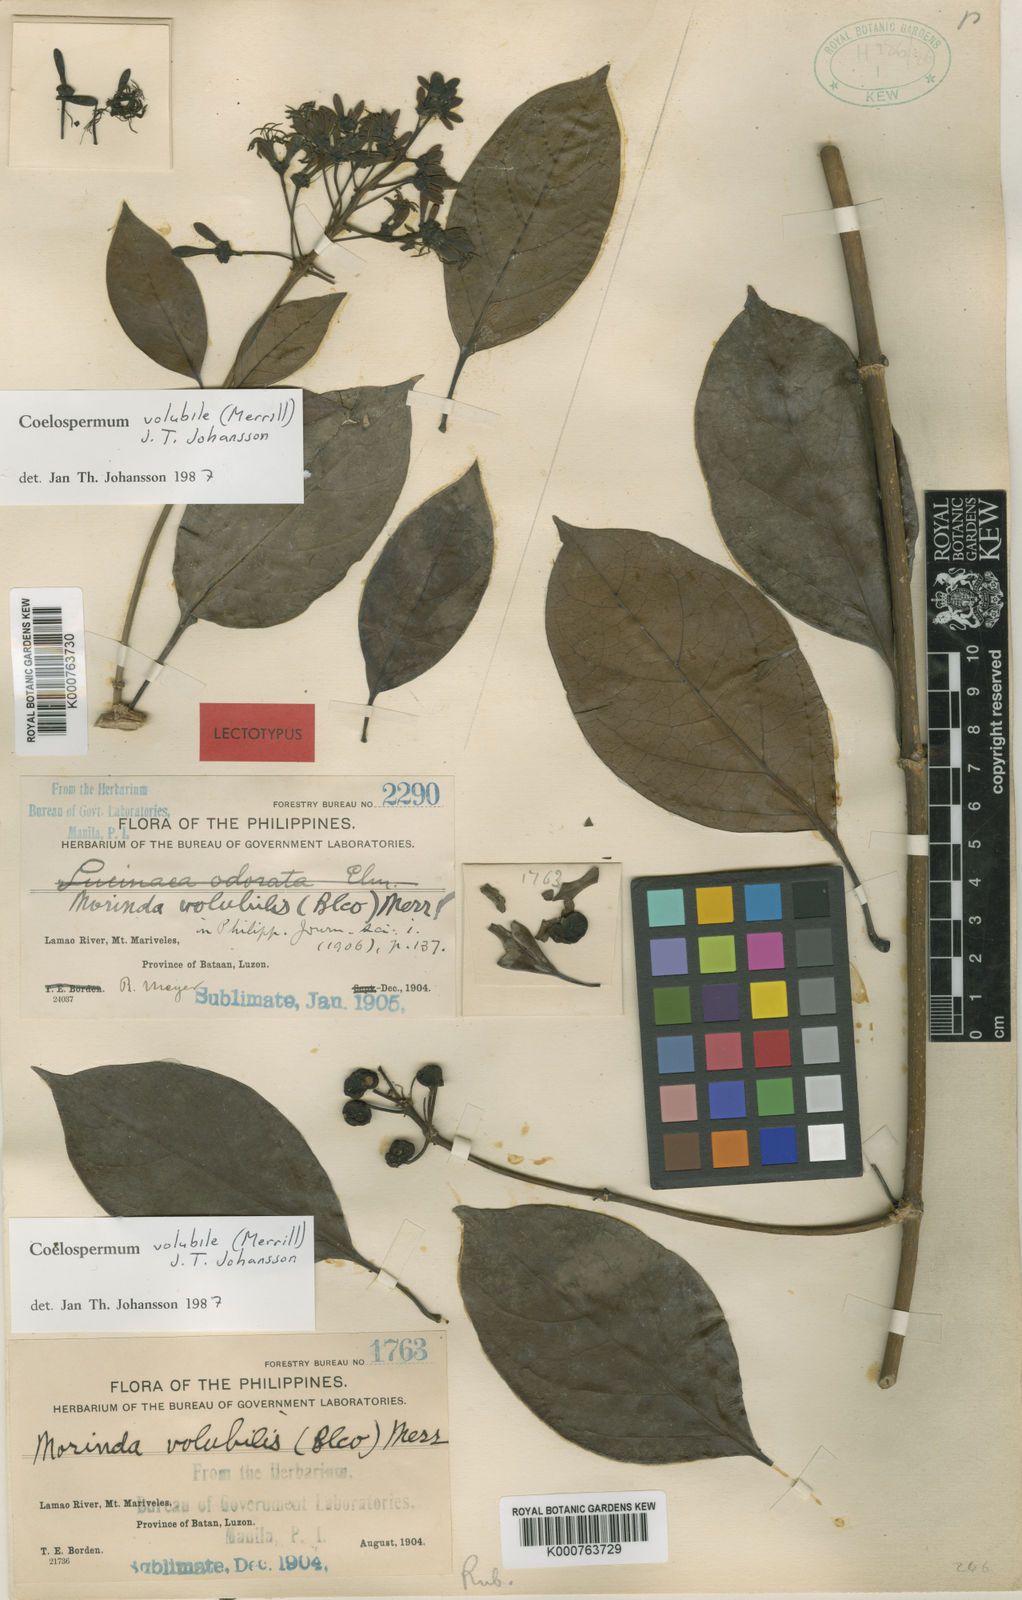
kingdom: Plantae
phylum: Tracheophyta
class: Magnoliopsida
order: Gentianales
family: Rubiaceae
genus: Coelospermum
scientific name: Coelospermum volubile
